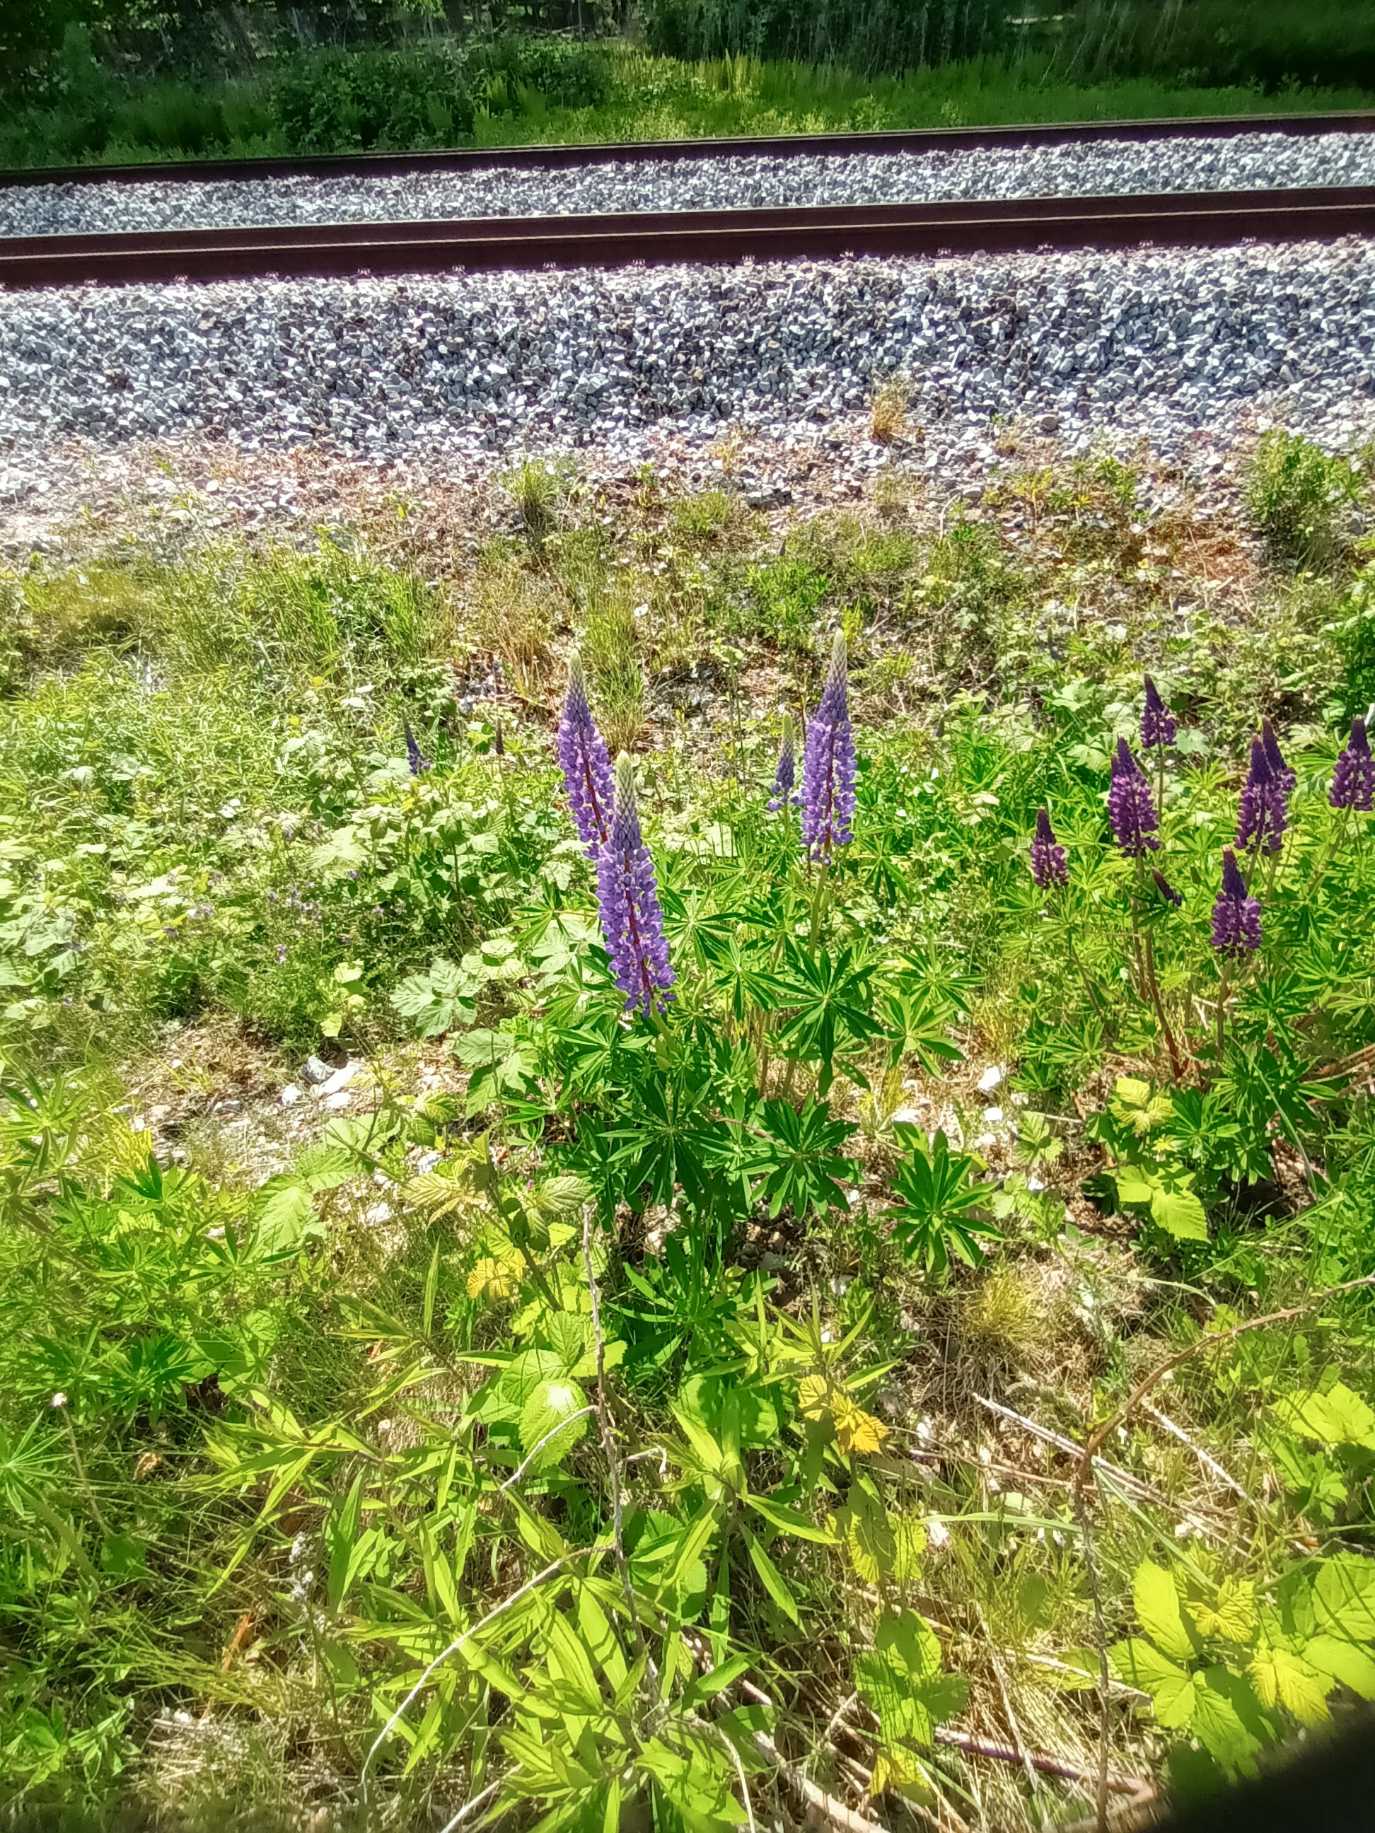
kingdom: Plantae
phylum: Tracheophyta
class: Magnoliopsida
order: Fabales
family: Fabaceae
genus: Lupinus
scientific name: Lupinus polyphyllus
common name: Mangebladet lupin
